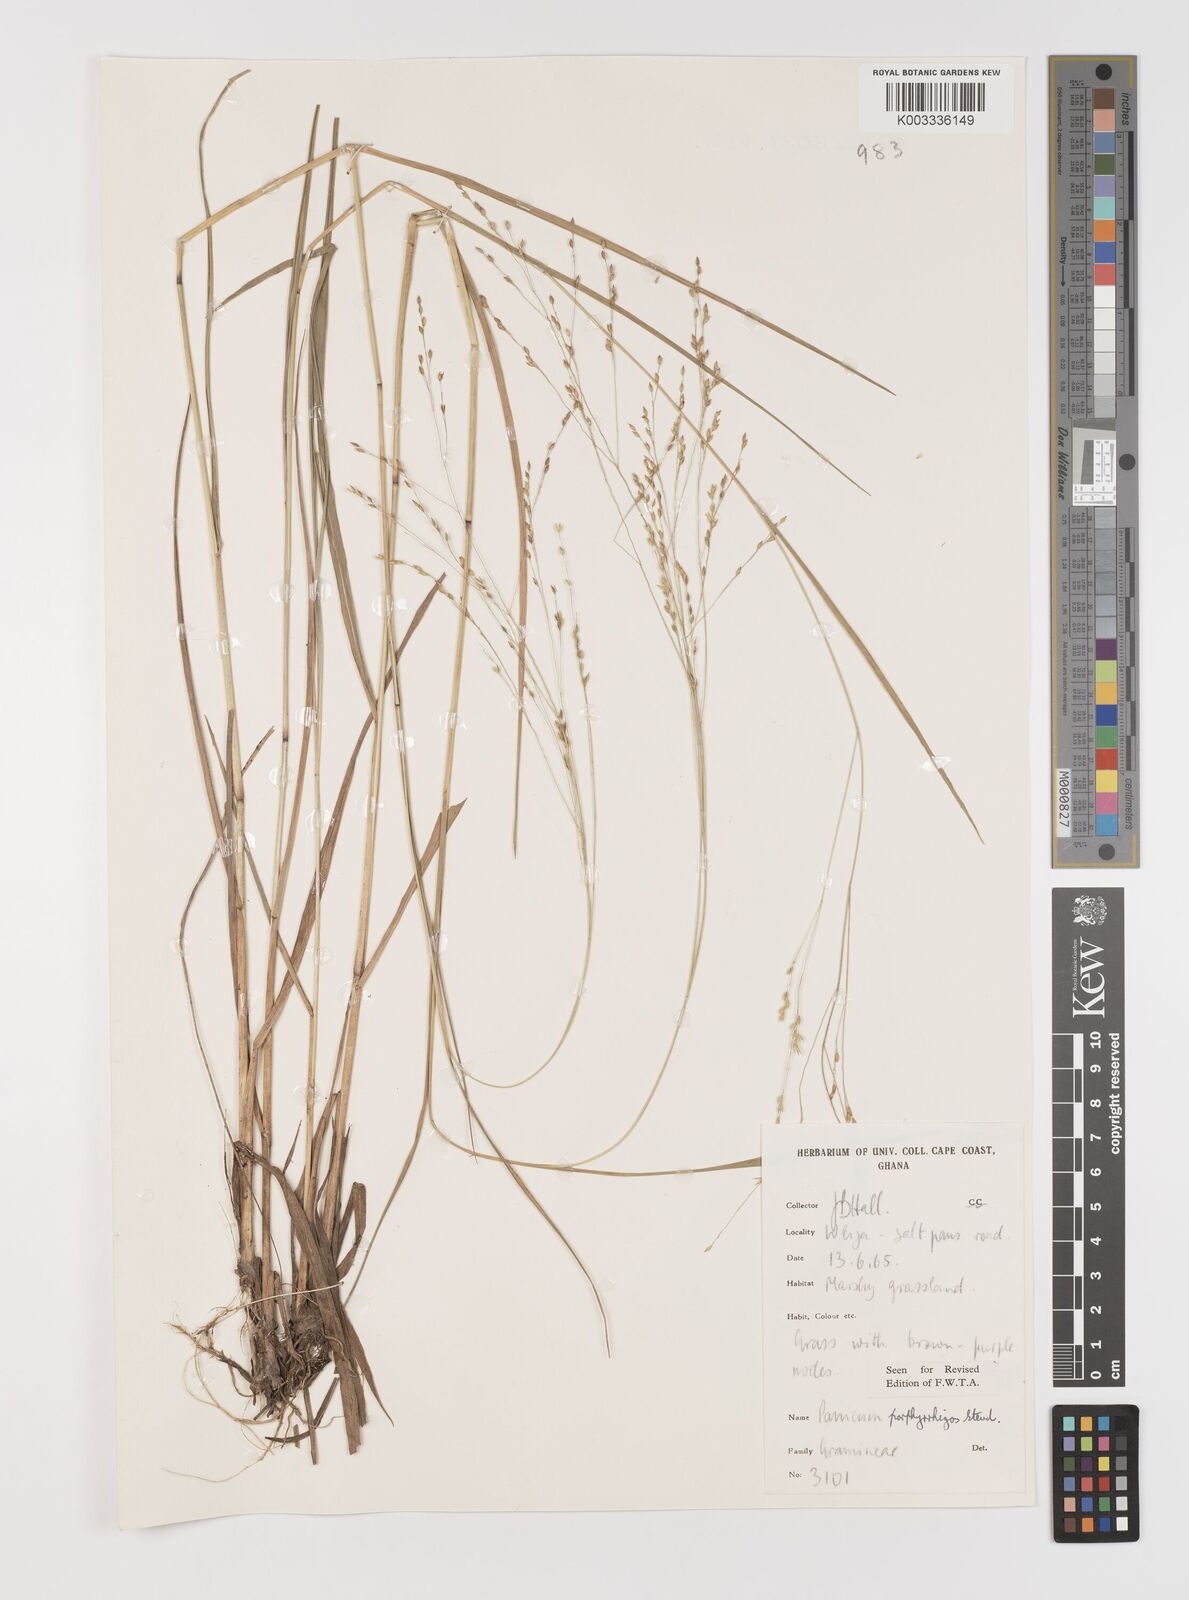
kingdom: Plantae
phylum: Tracheophyta
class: Liliopsida
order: Poales
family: Poaceae
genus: Panicum
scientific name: Panicum porphyrrhizos
